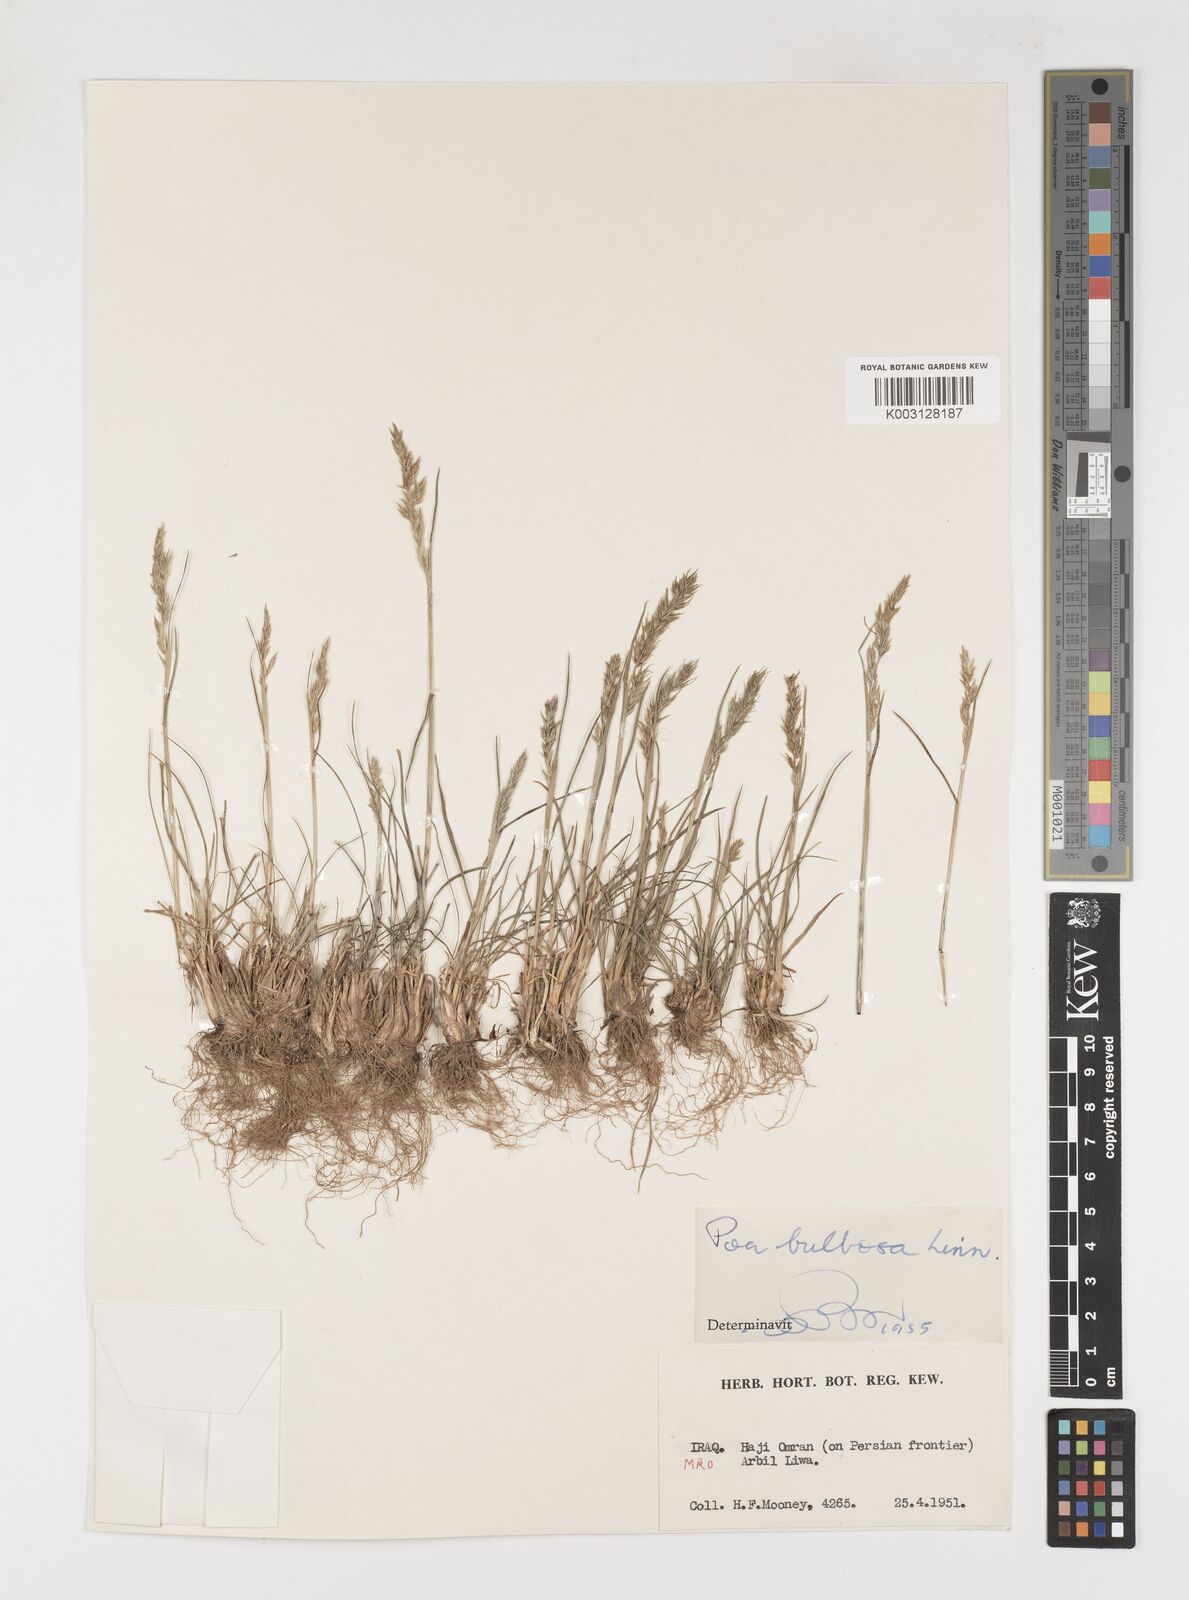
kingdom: Plantae
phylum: Tracheophyta
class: Liliopsida
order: Poales
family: Poaceae
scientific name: Poaceae
